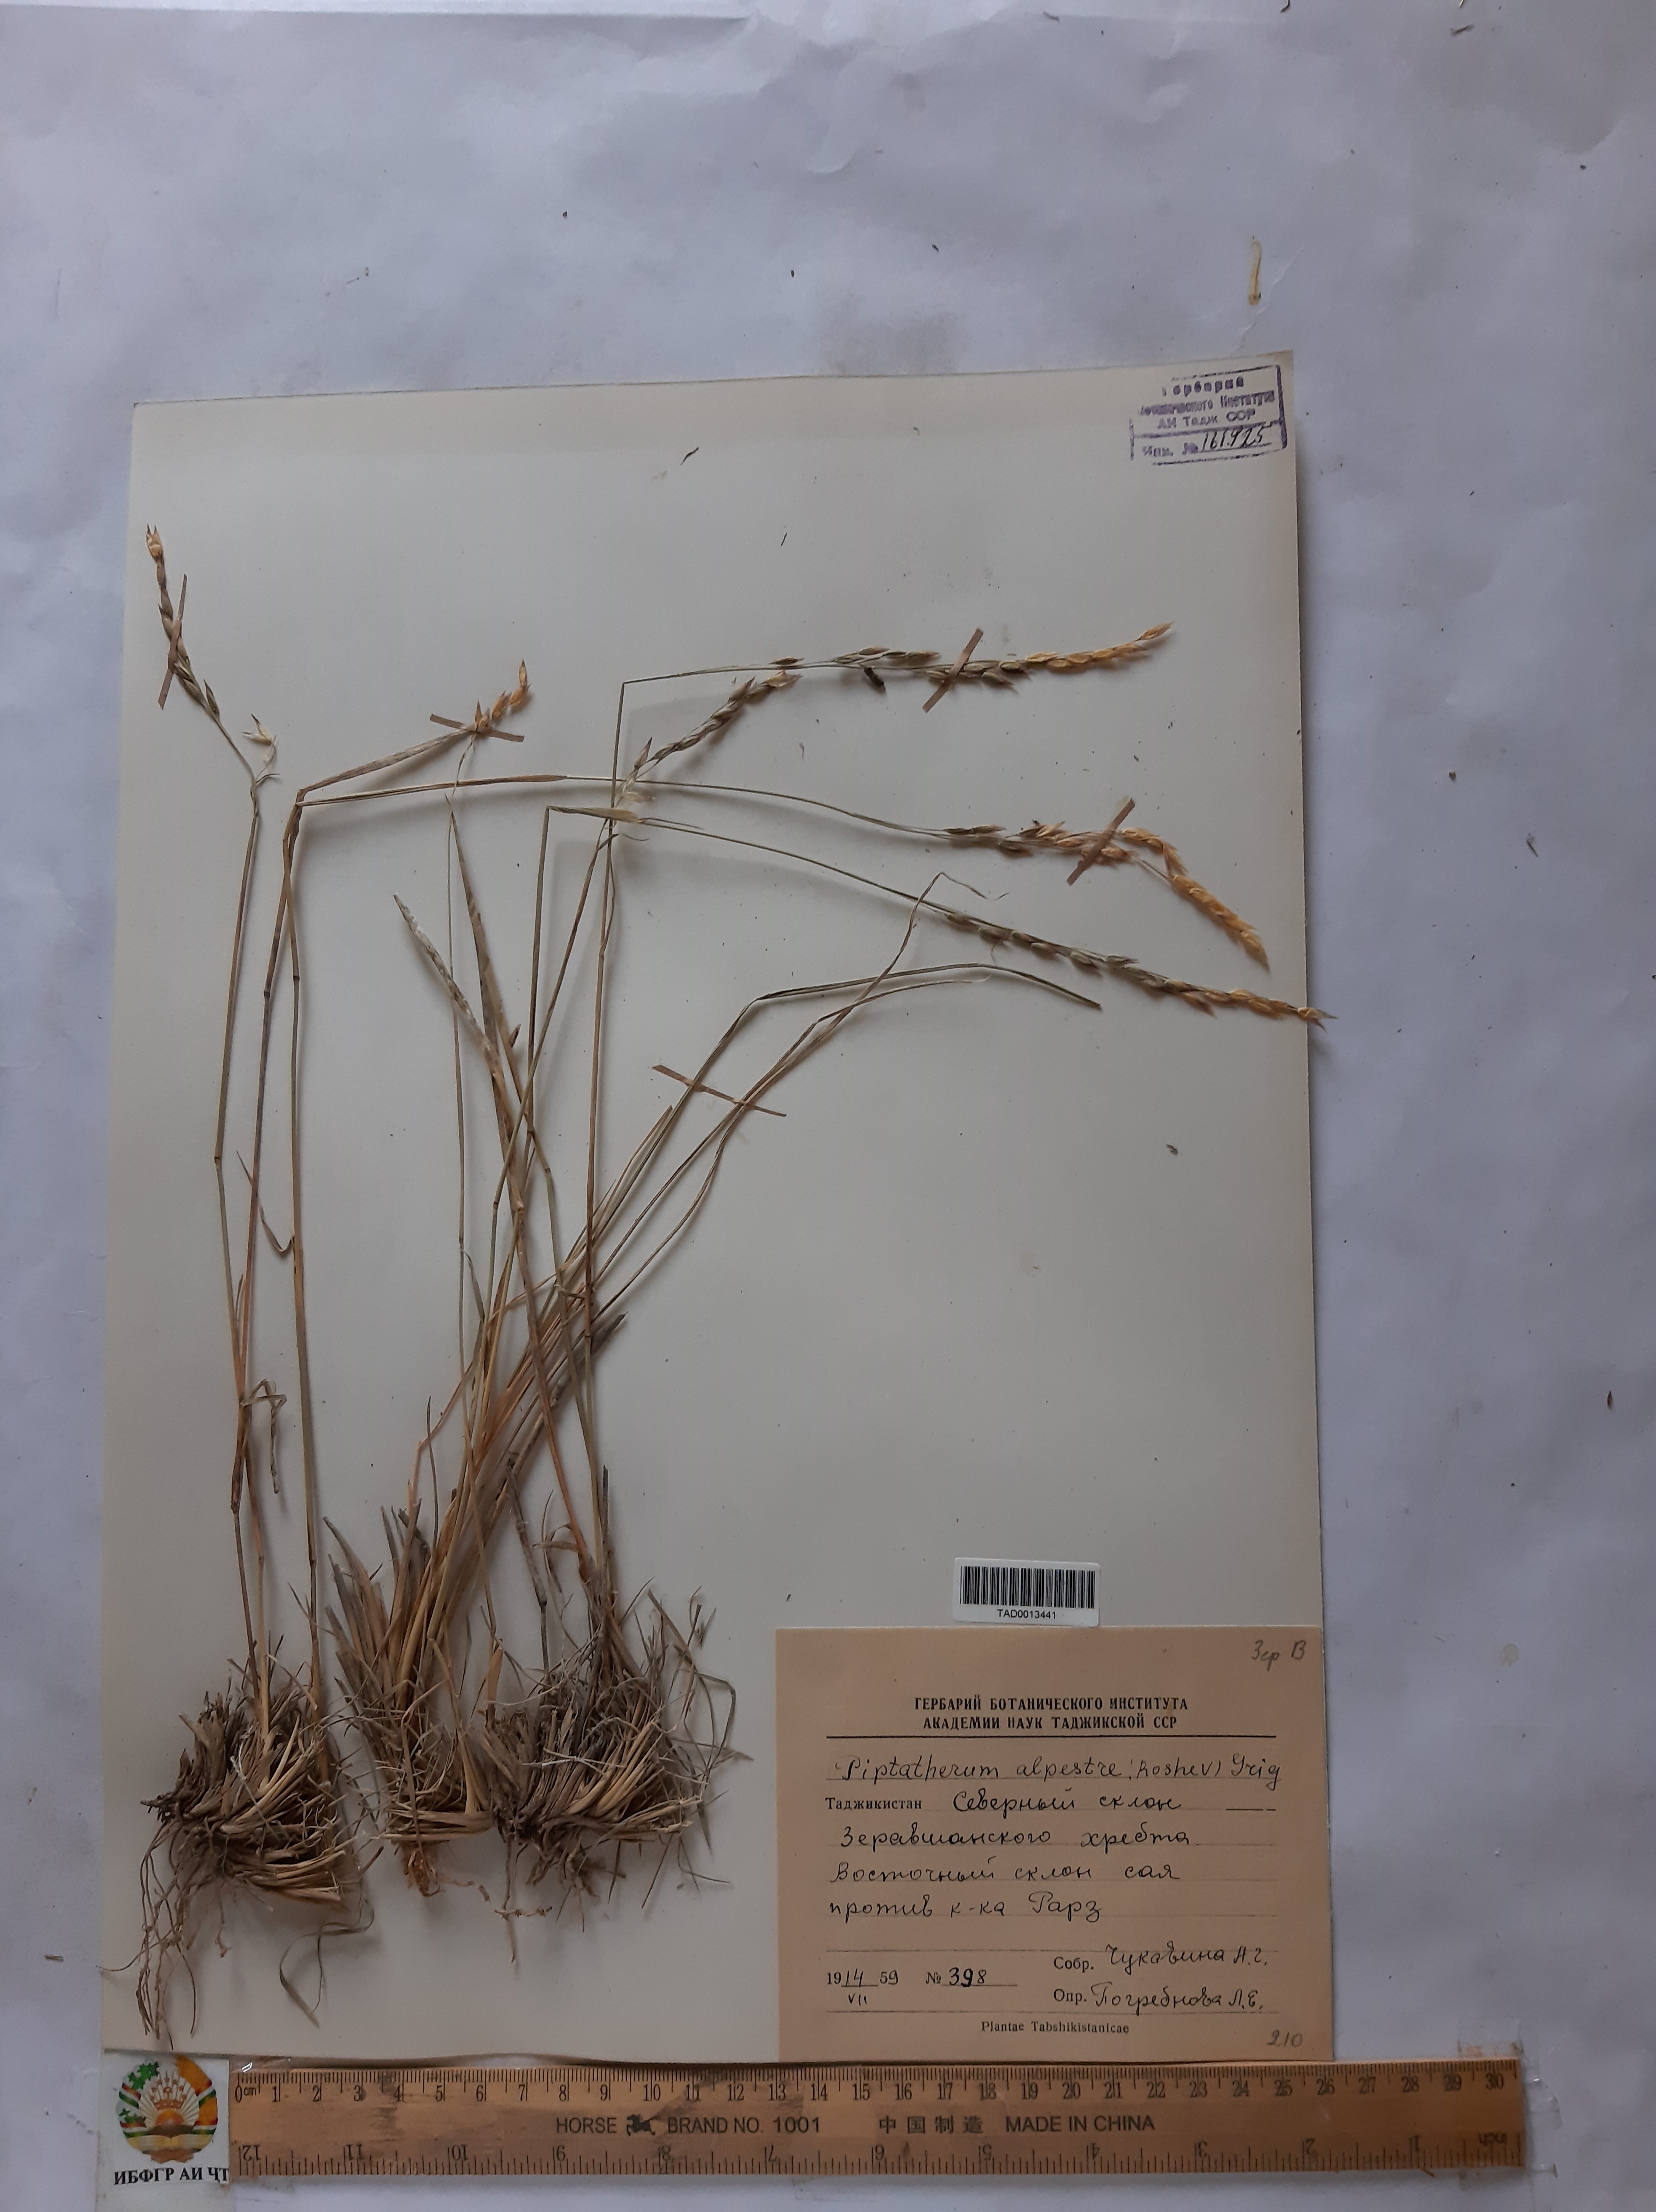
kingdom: Plantae
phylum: Tracheophyta
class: Liliopsida
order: Poales
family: Poaceae
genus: Piptatherum
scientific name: Piptatherum alpestre
